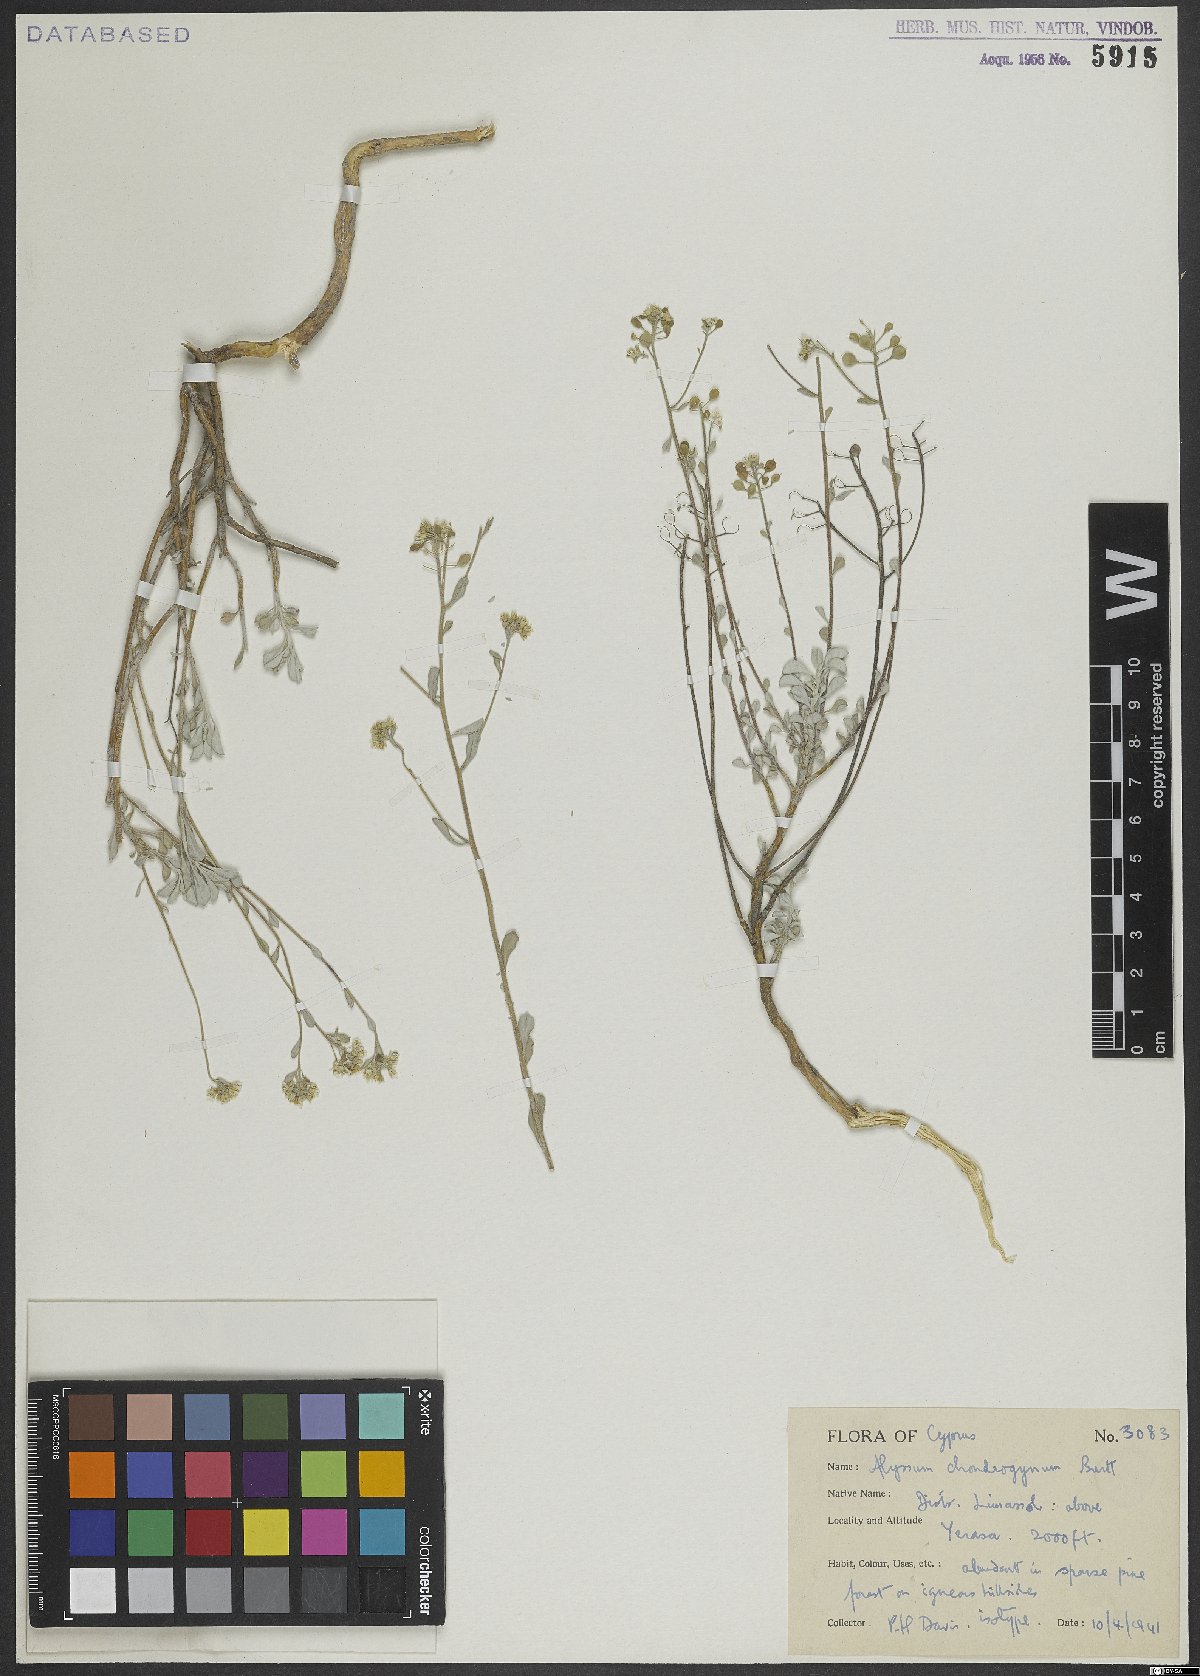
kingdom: Plantae
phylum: Tracheophyta
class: Magnoliopsida
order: Brassicales
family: Brassicaceae
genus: Odontarrhena
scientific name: Odontarrhena chondrogyna
